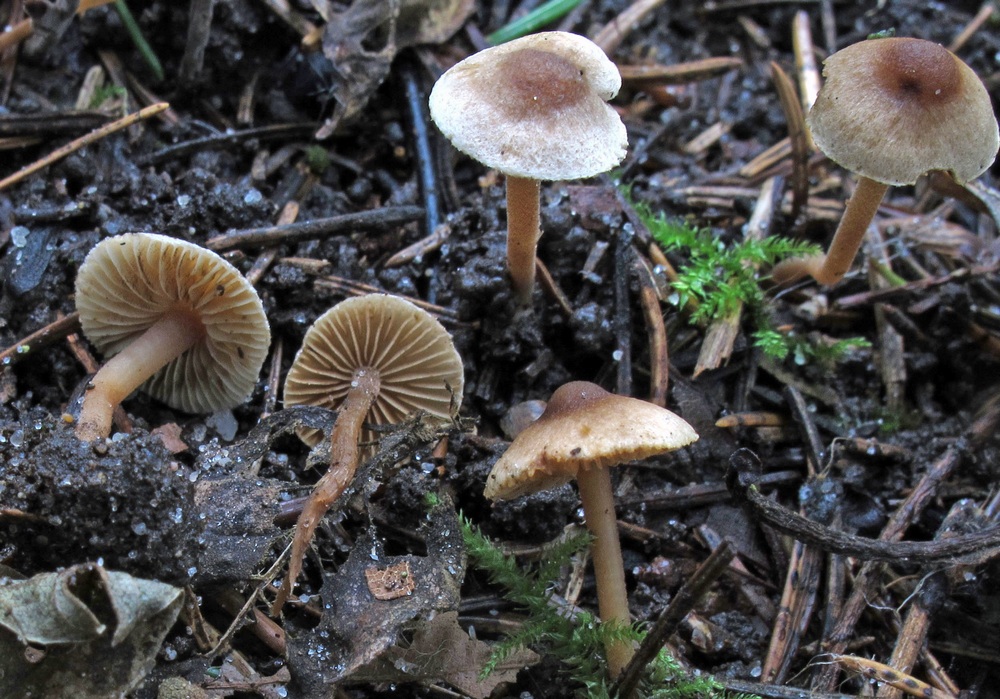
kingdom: Fungi
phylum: Basidiomycota
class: Agaricomycetes
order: Agaricales
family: Inocybaceae
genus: Inocybe
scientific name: Inocybe petiginosa
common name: liden trævlhat
